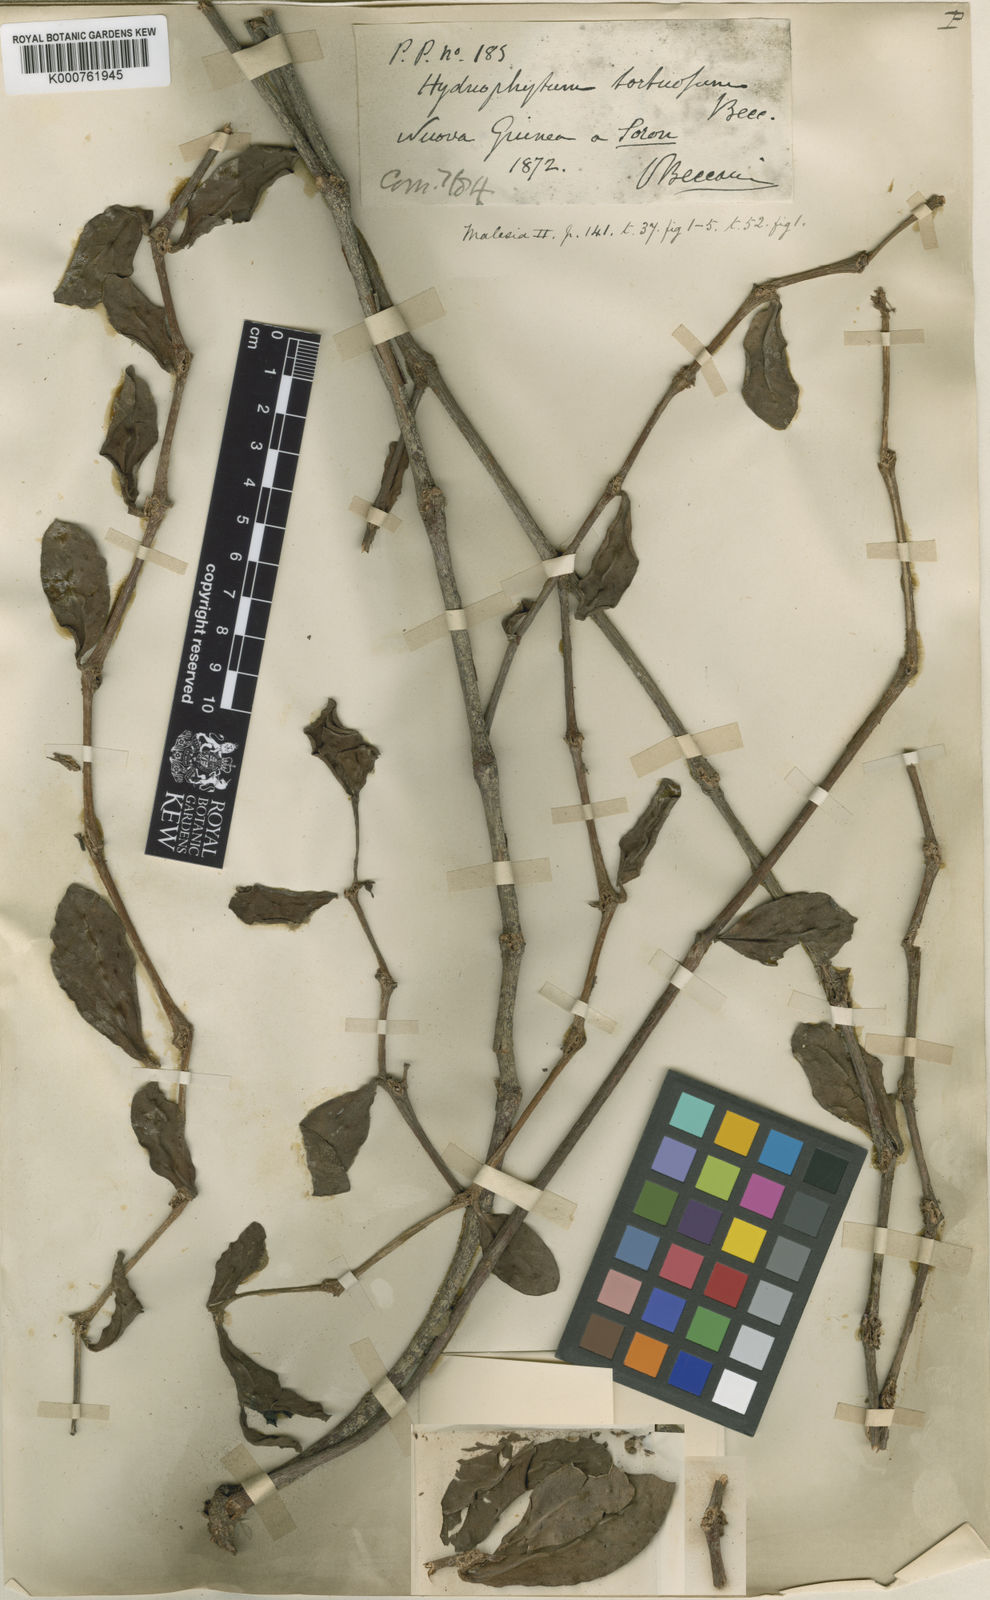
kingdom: Plantae
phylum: Tracheophyta
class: Magnoliopsida
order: Gentianales
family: Rubiaceae
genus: Hydnophytum
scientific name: Hydnophytum tortuosum
